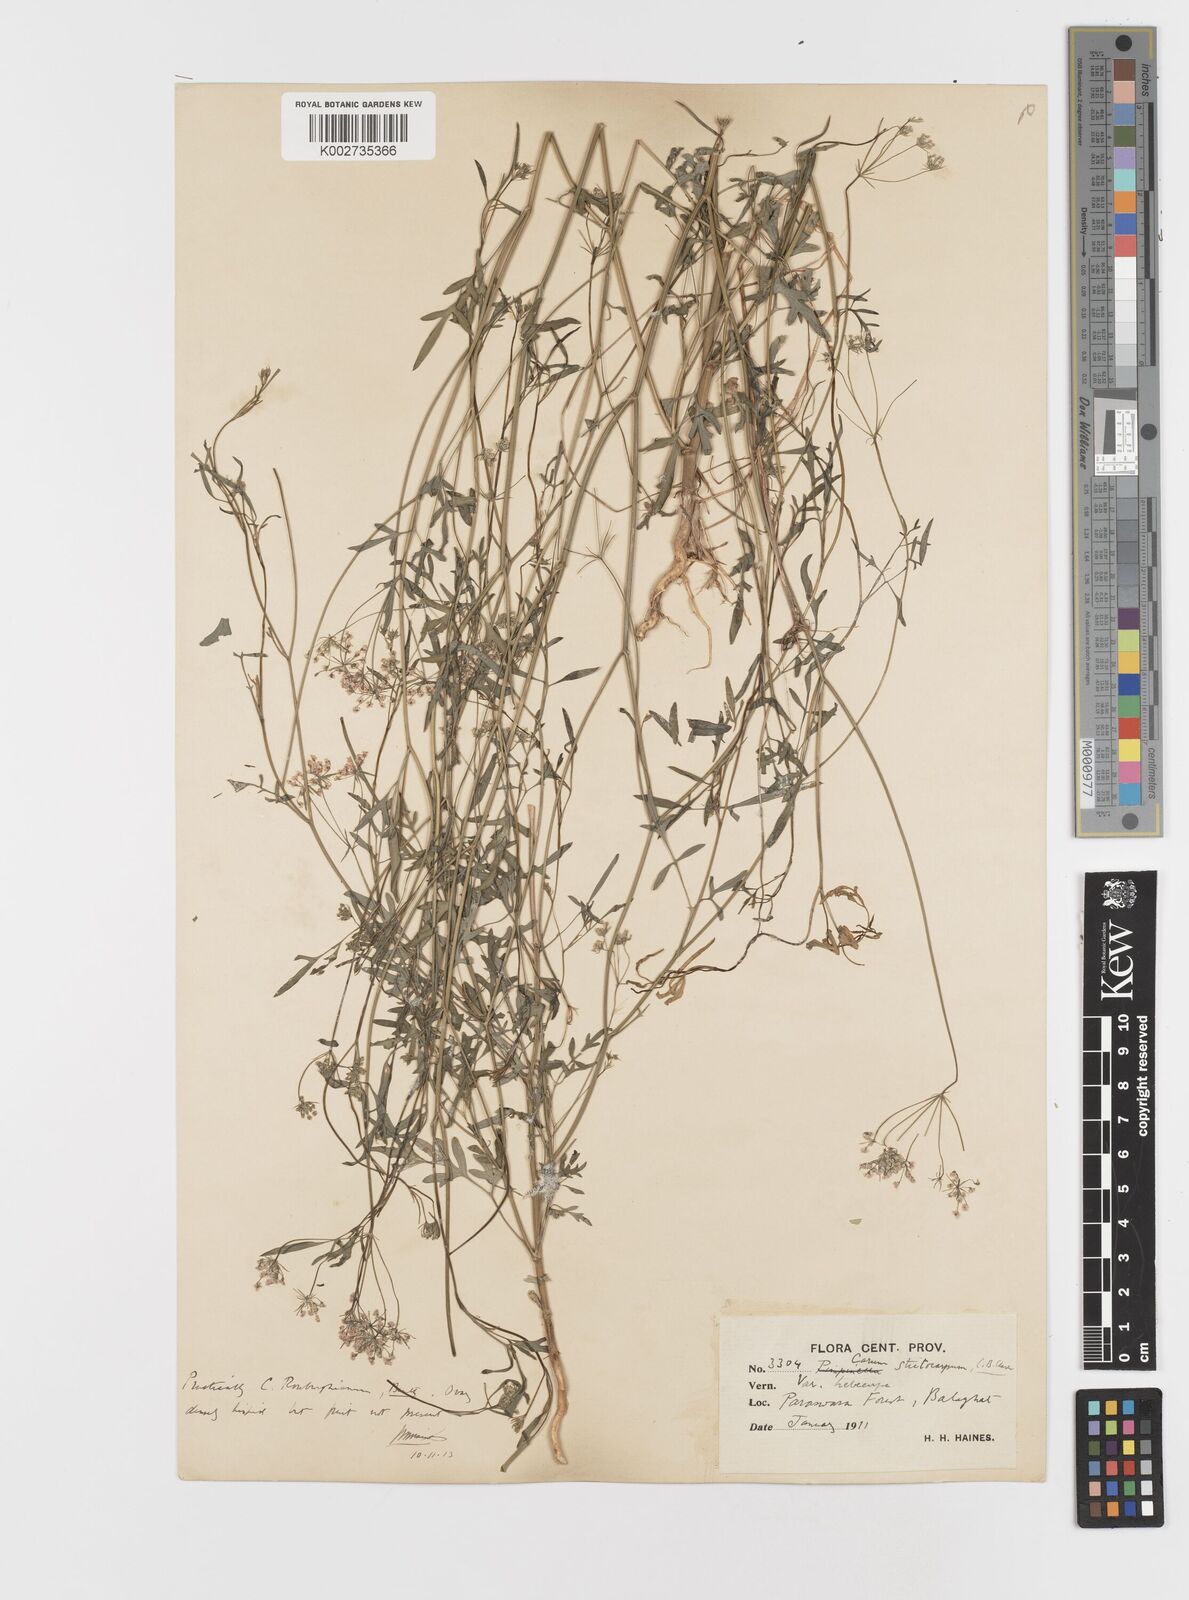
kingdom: Plantae
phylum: Tracheophyta
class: Magnoliopsida
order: Apiales
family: Apiaceae
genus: Psammogeton
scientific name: Psammogeton involucratum
